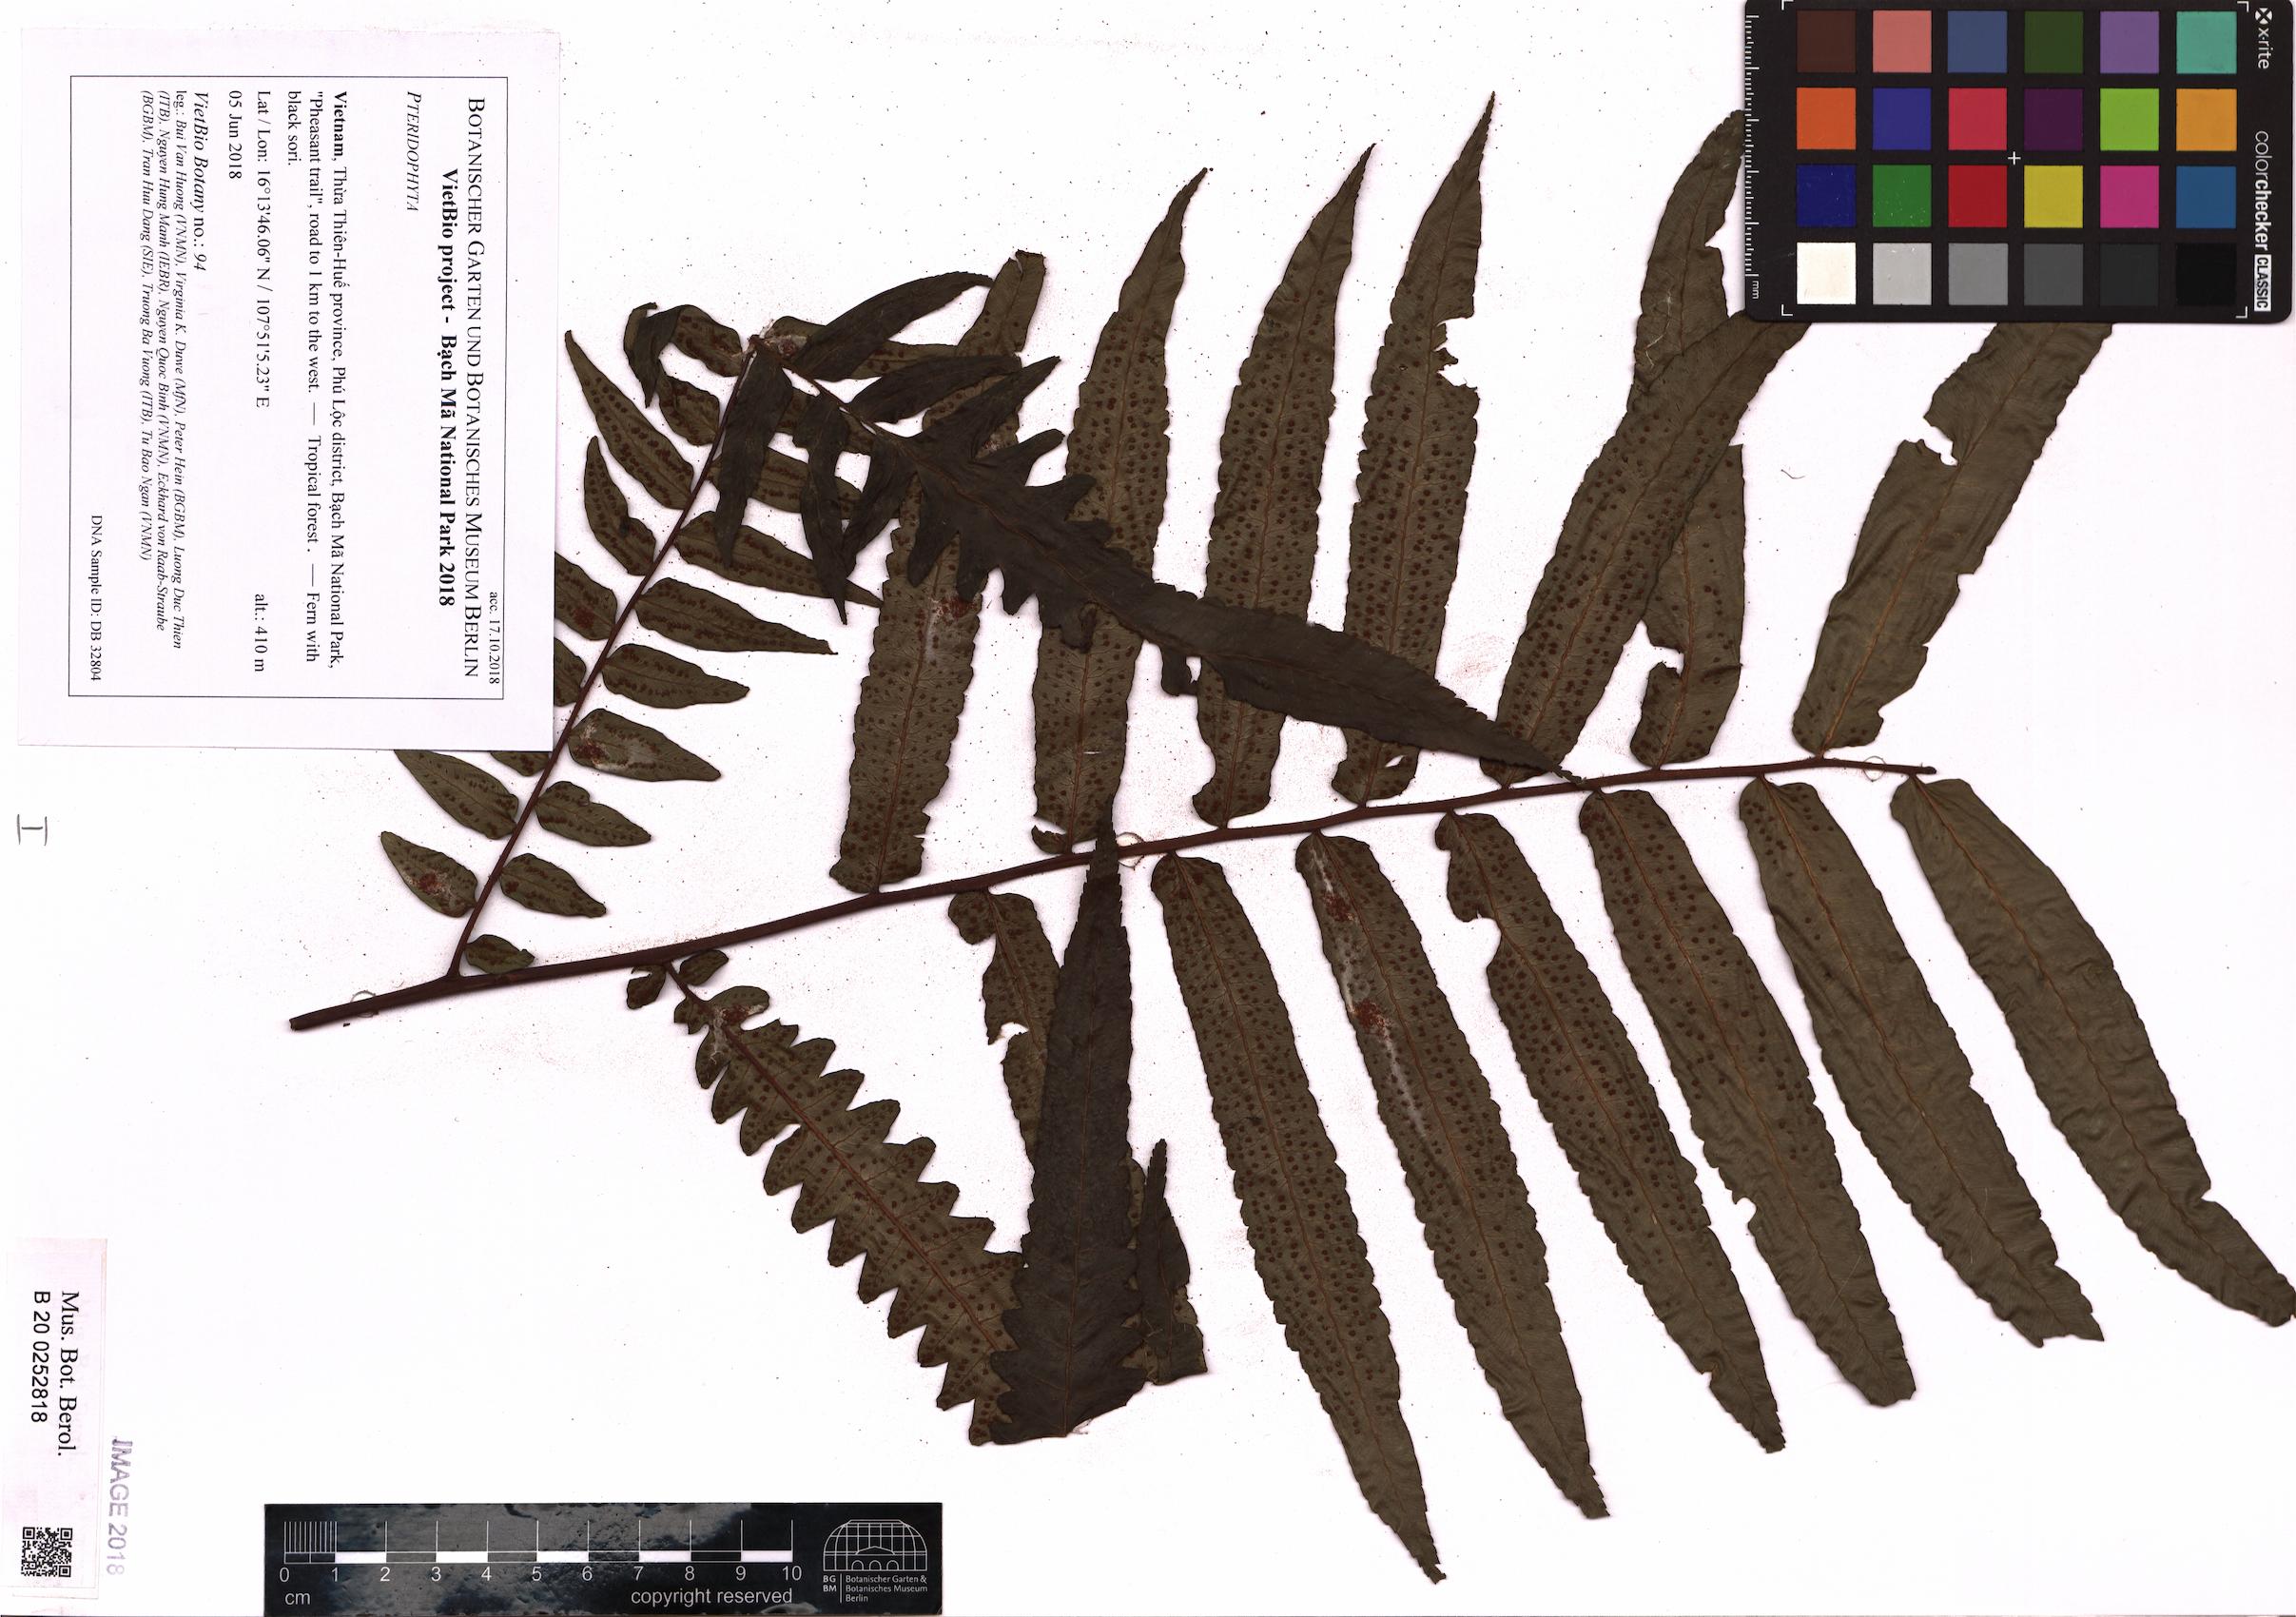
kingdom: Plantae
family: Pteridophyta
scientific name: Pteridophyta
